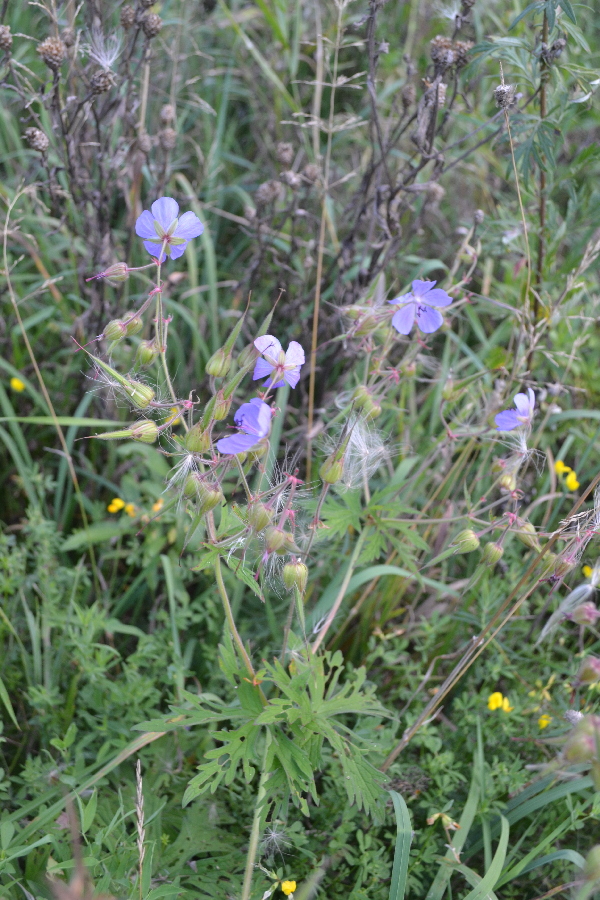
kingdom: Plantae
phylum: Tracheophyta
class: Magnoliopsida
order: Geraniales
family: Geraniaceae
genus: Geranium
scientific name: Geranium pratense
